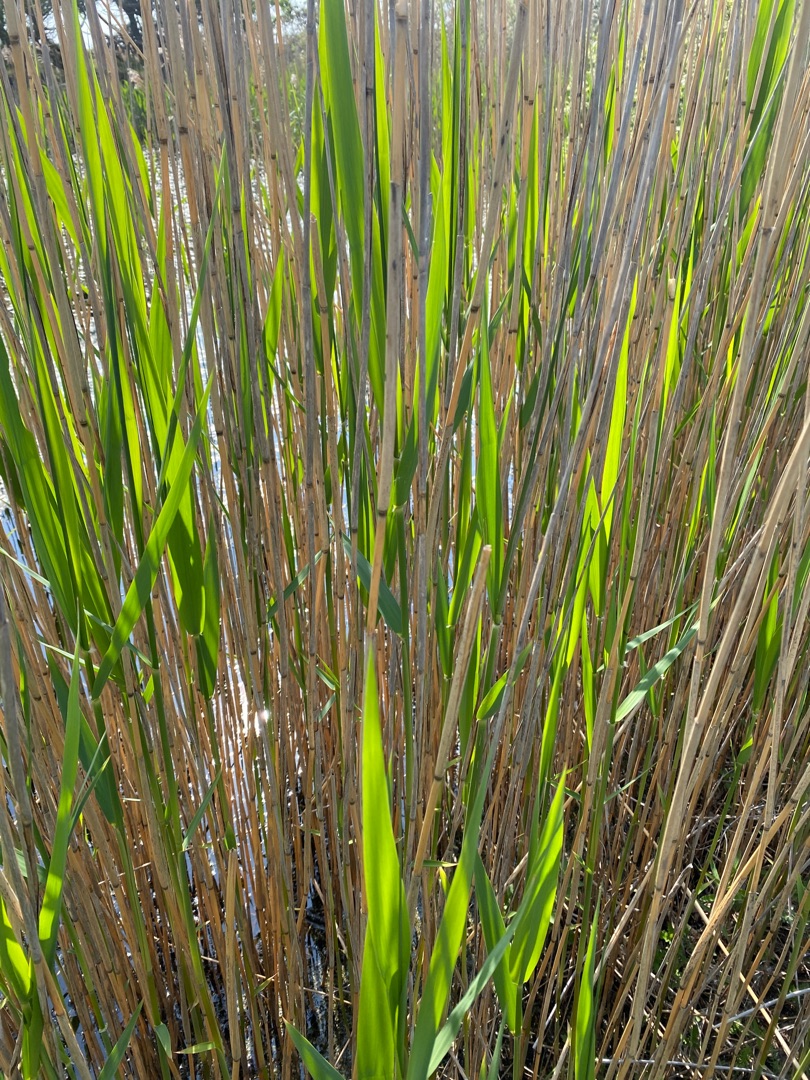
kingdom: Plantae
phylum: Tracheophyta
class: Liliopsida
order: Poales
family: Poaceae
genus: Phragmites
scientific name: Phragmites australis
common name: Tagrør
